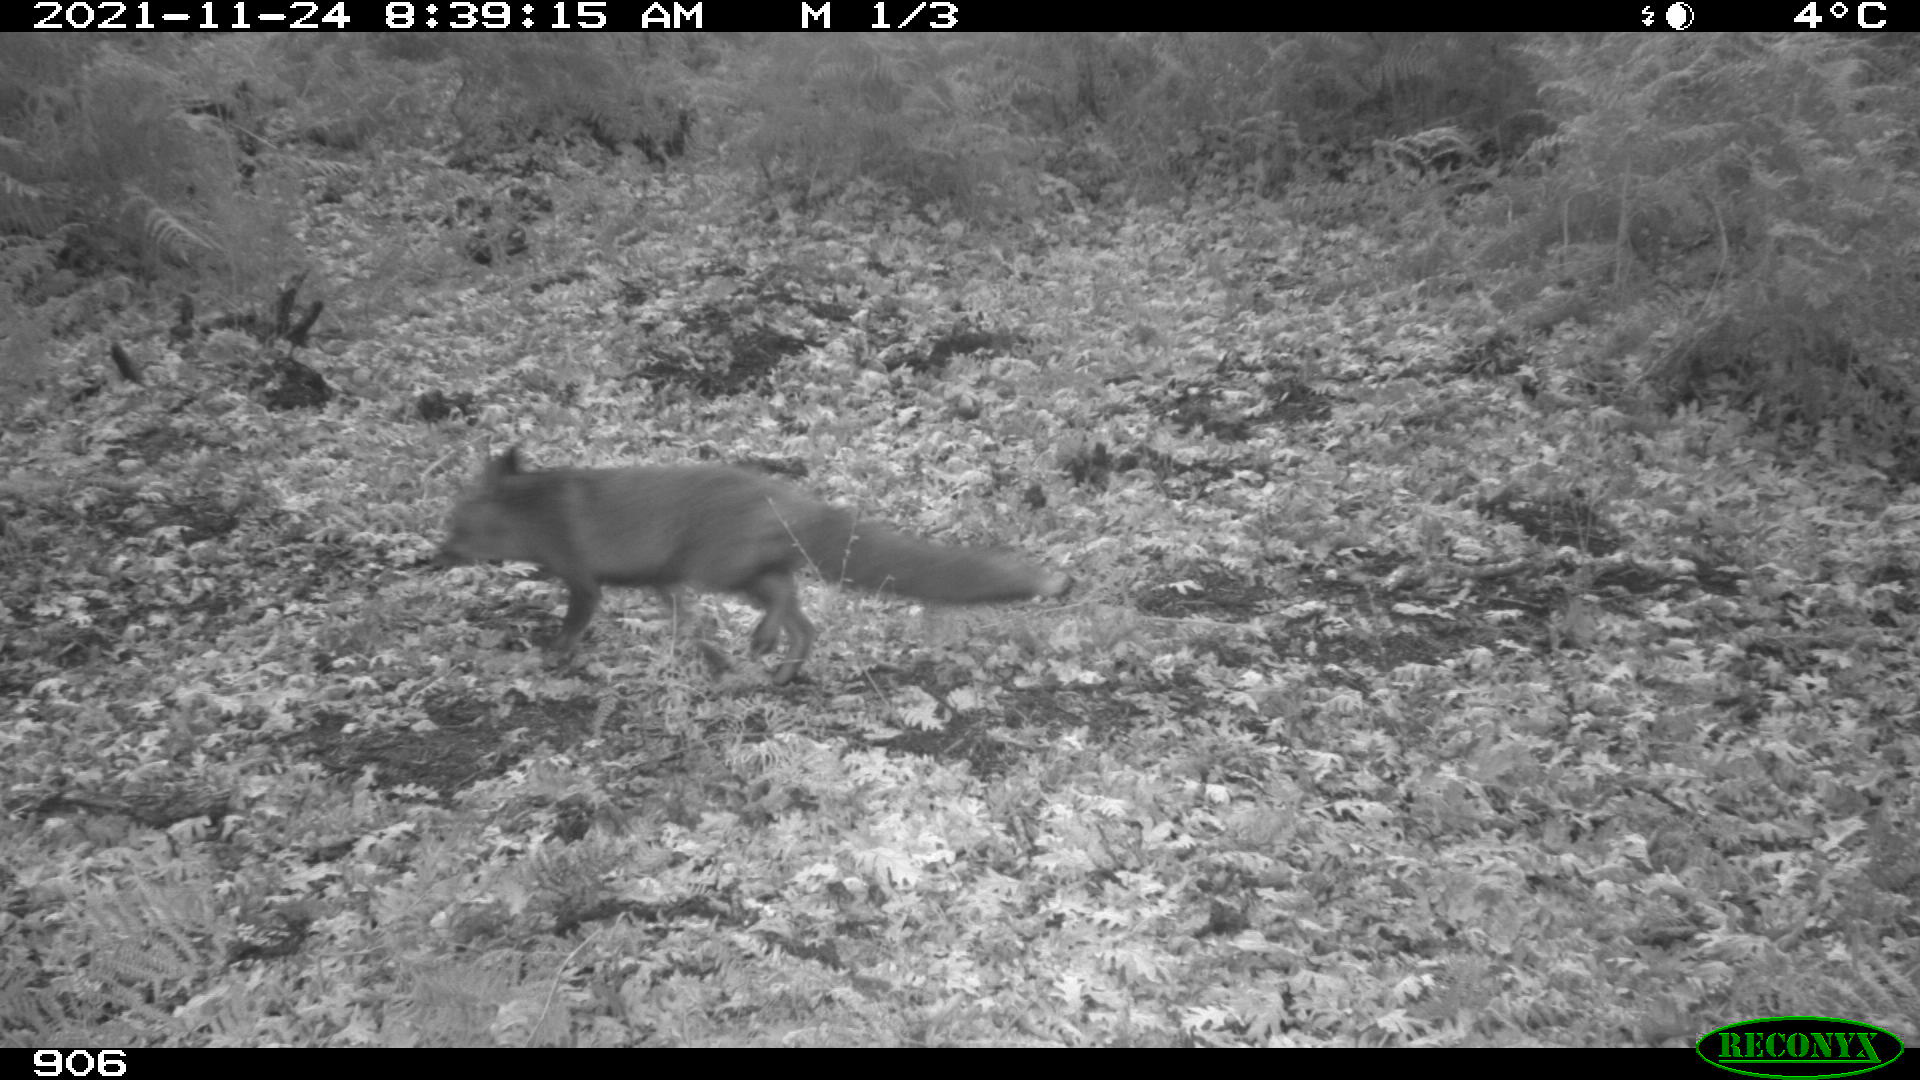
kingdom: Animalia
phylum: Chordata
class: Mammalia
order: Carnivora
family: Canidae
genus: Vulpes
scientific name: Vulpes vulpes
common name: Red fox
